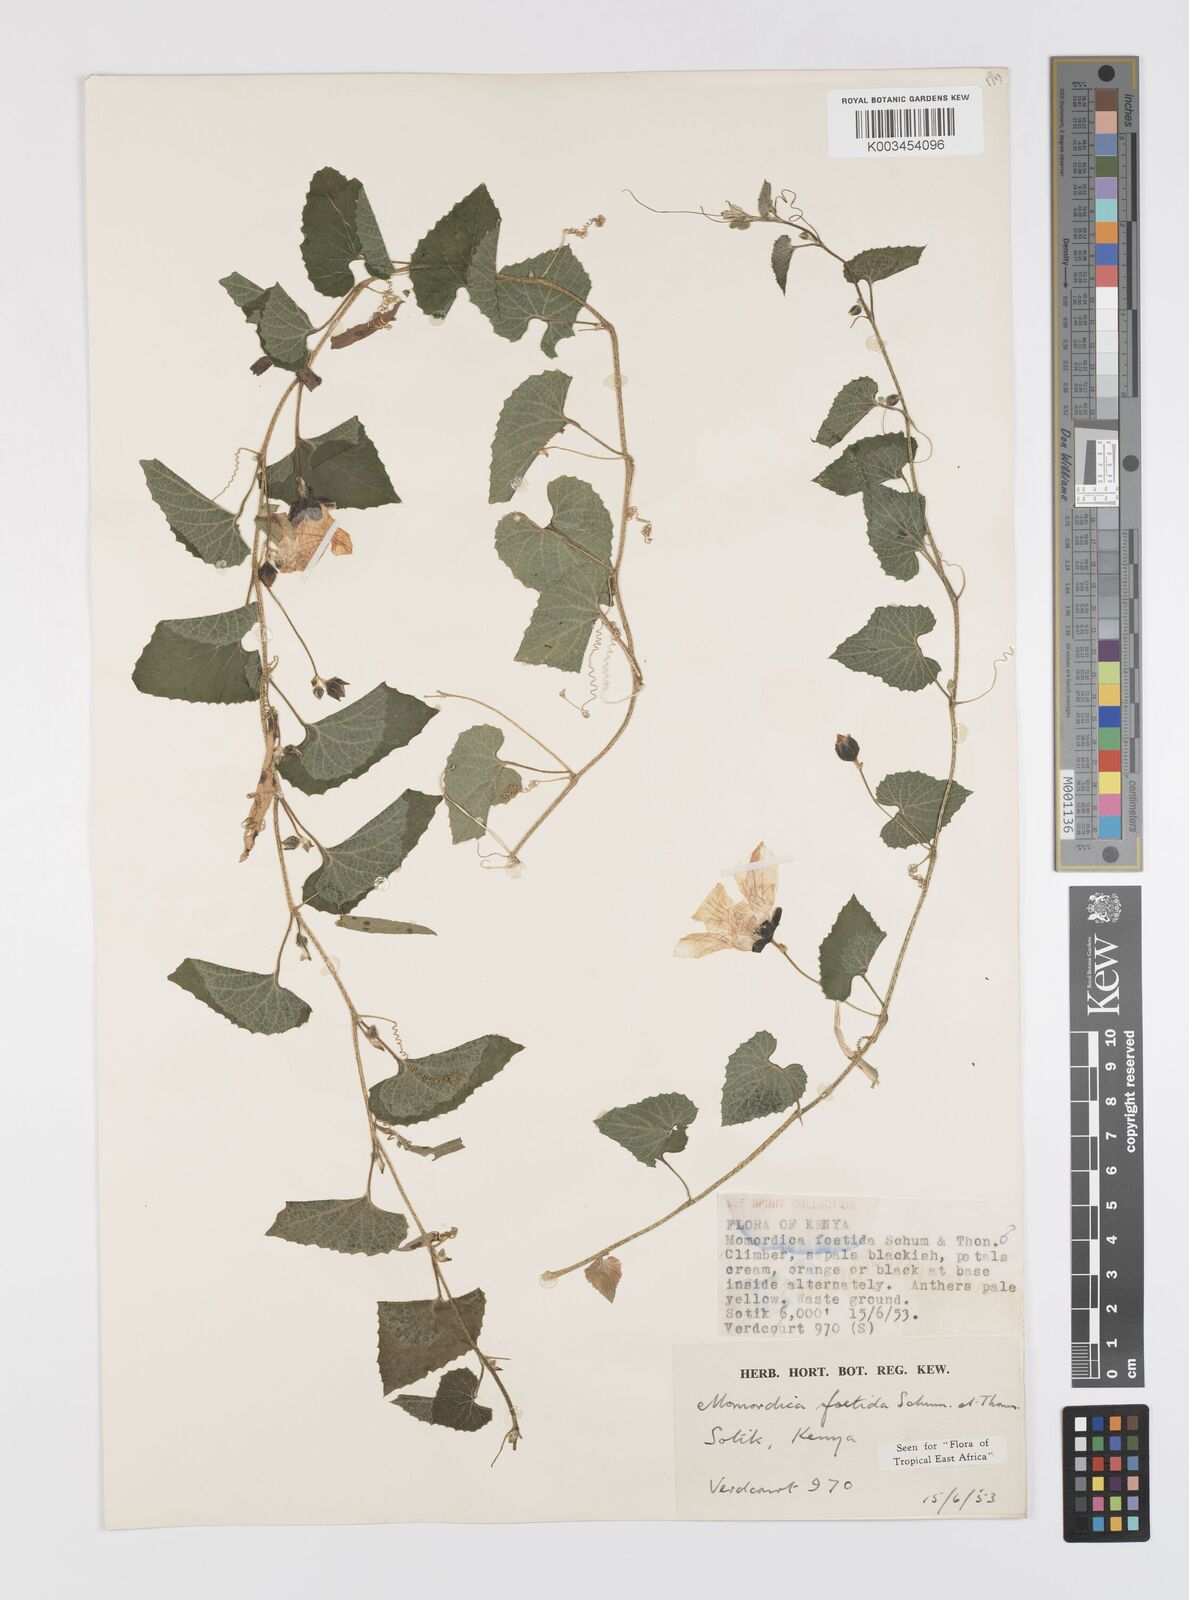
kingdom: Plantae
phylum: Tracheophyta
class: Magnoliopsida
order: Cucurbitales
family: Cucurbitaceae
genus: Momordica
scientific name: Momordica foetida
